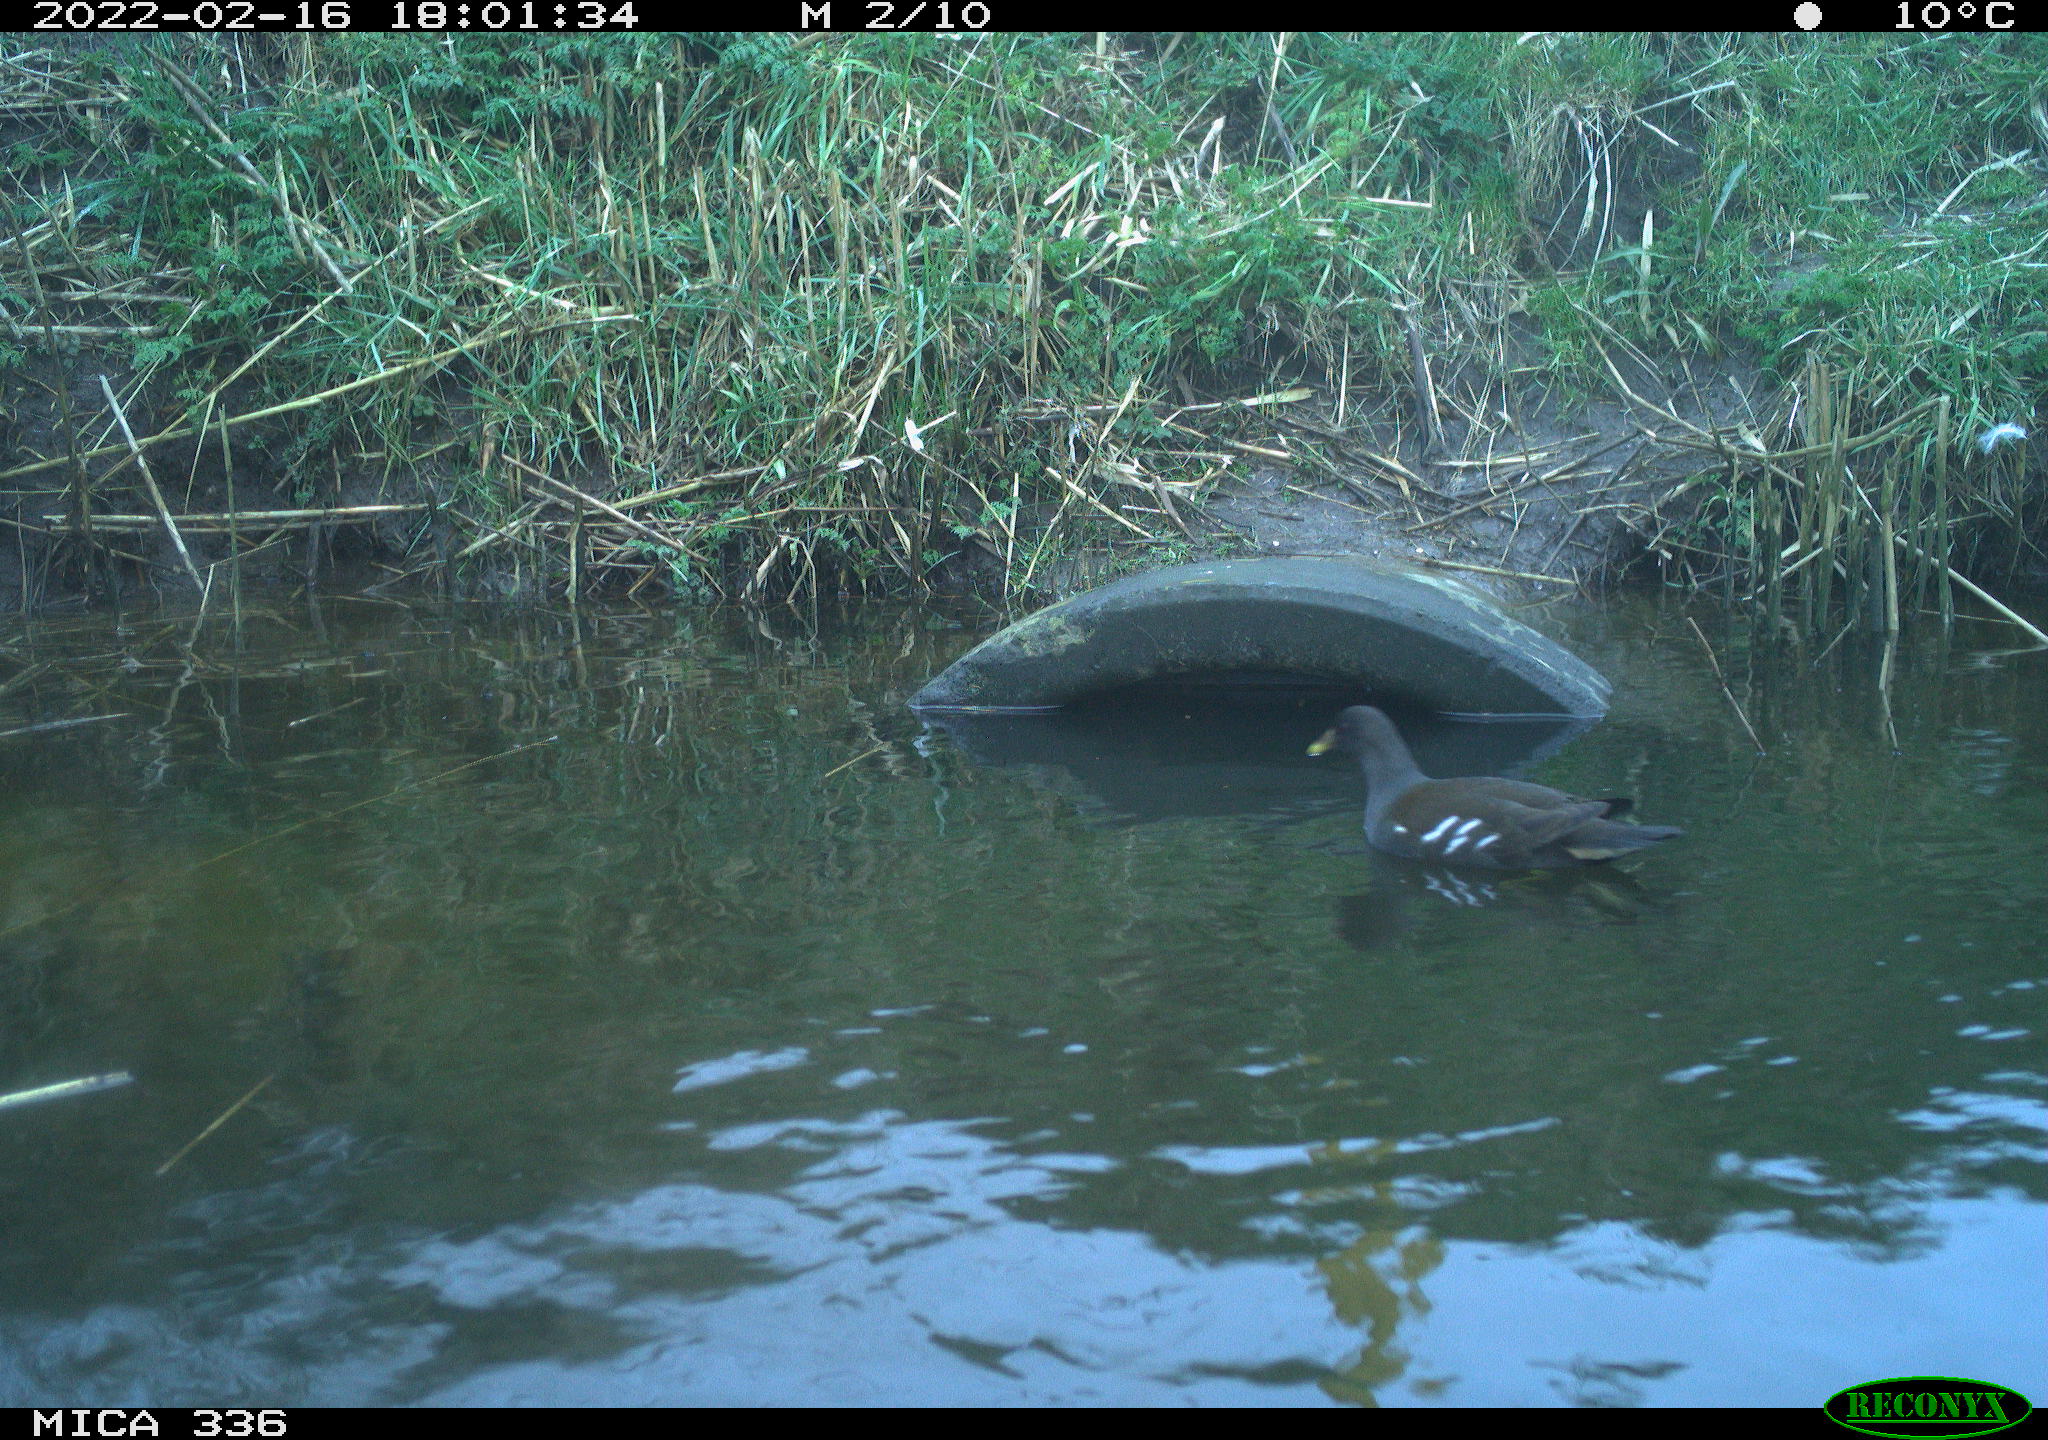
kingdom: Animalia
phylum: Chordata
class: Aves
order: Gruiformes
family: Rallidae
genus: Gallinula
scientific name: Gallinula chloropus
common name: Common moorhen
